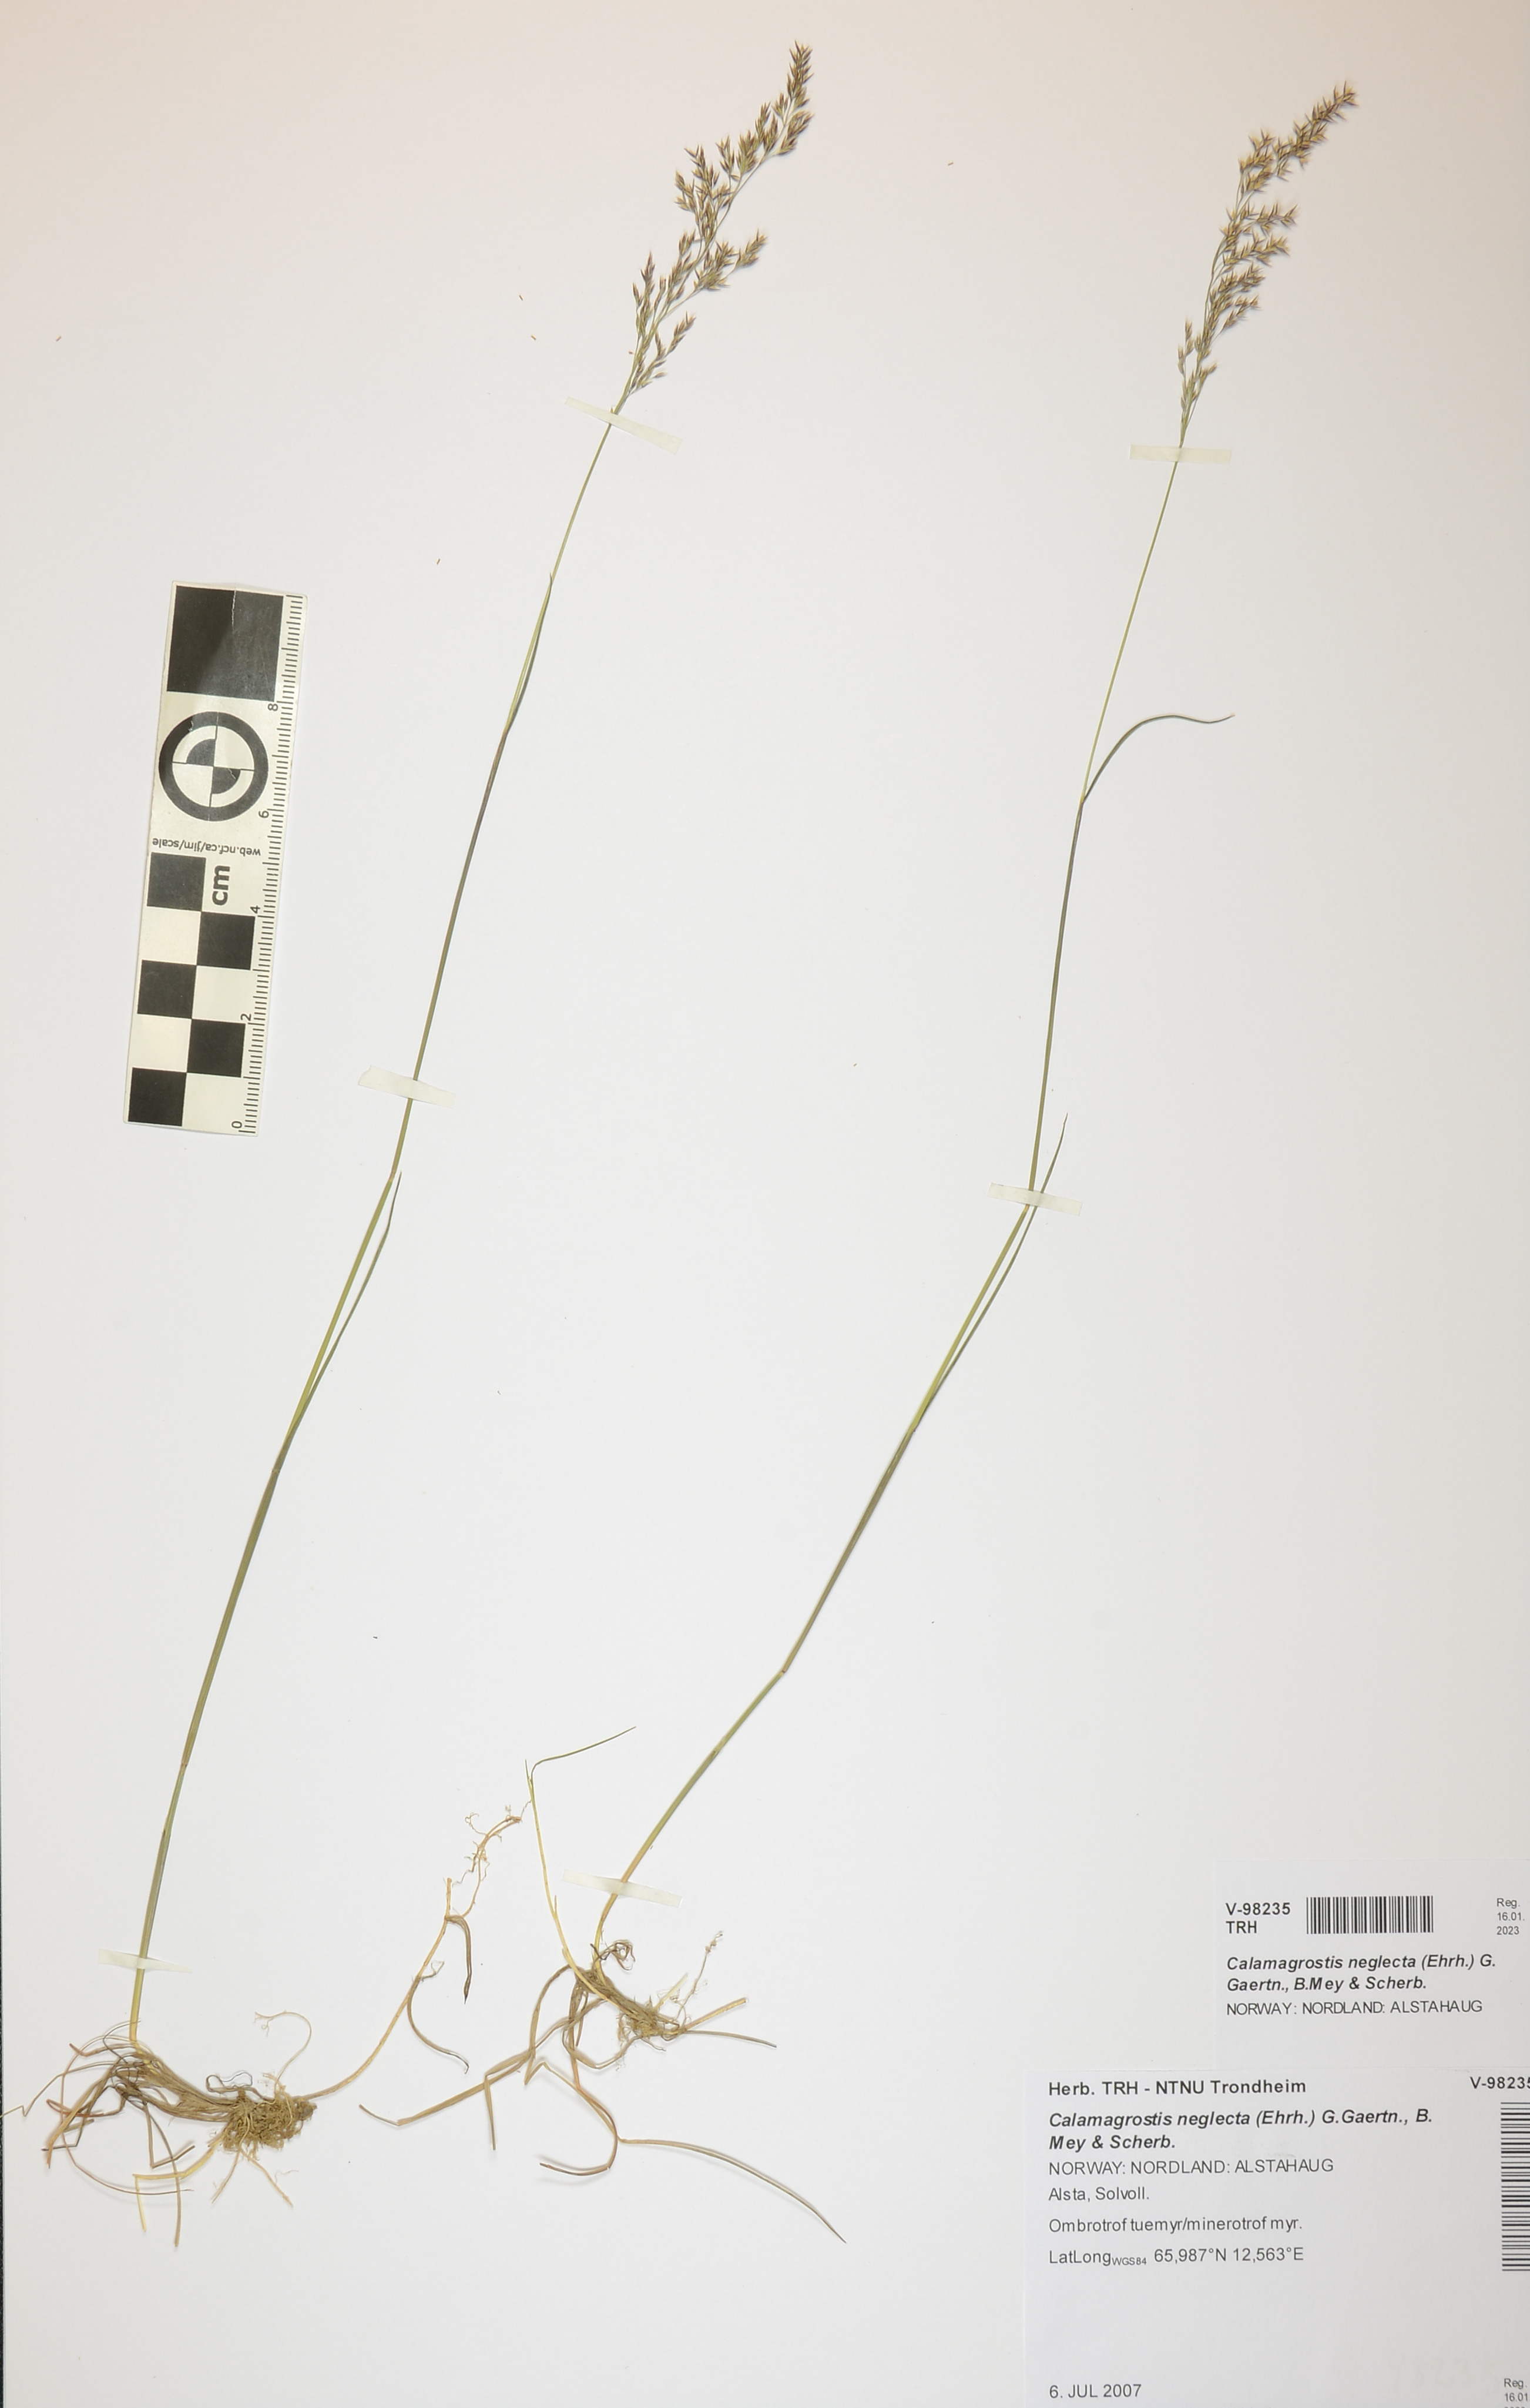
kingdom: Plantae
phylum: Tracheophyta
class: Liliopsida
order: Poales
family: Poaceae
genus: Achnatherum
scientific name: Achnatherum calamagrostis
